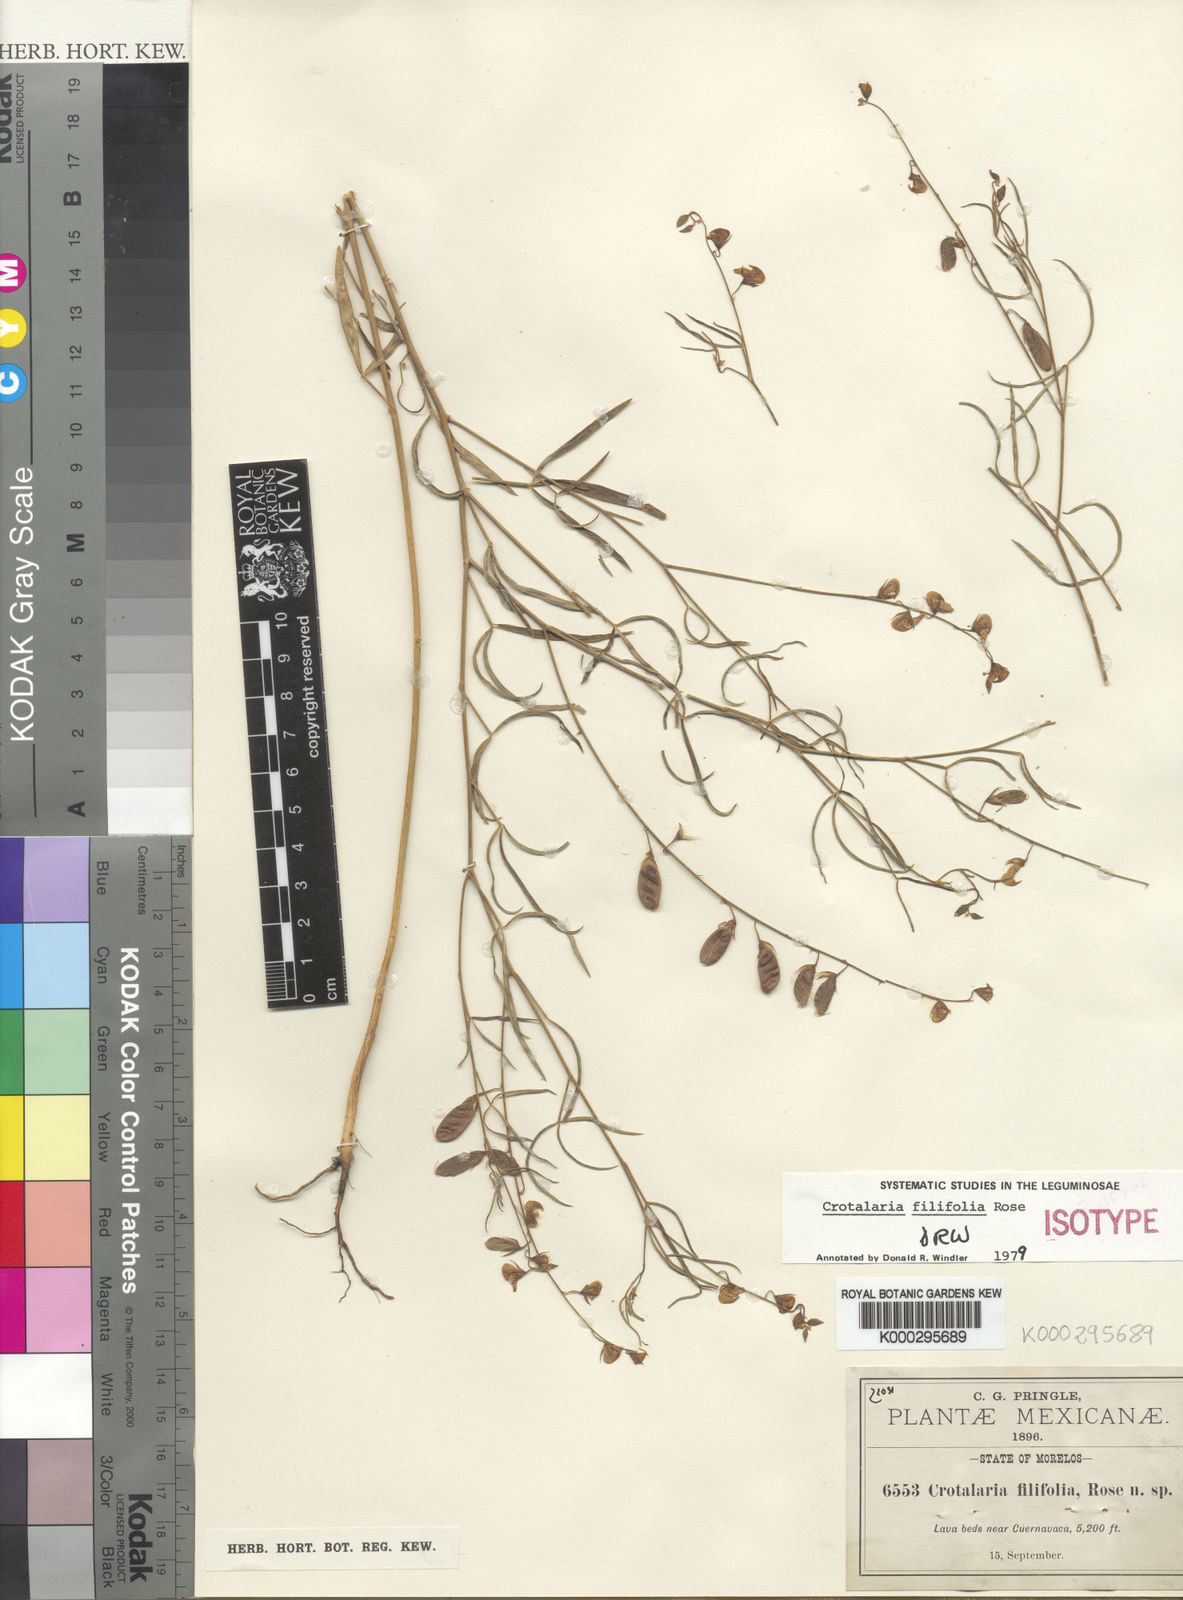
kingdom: Plantae
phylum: Tracheophyta
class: Magnoliopsida
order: Fabales
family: Fabaceae
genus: Crotalaria
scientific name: Crotalaria filifolia
